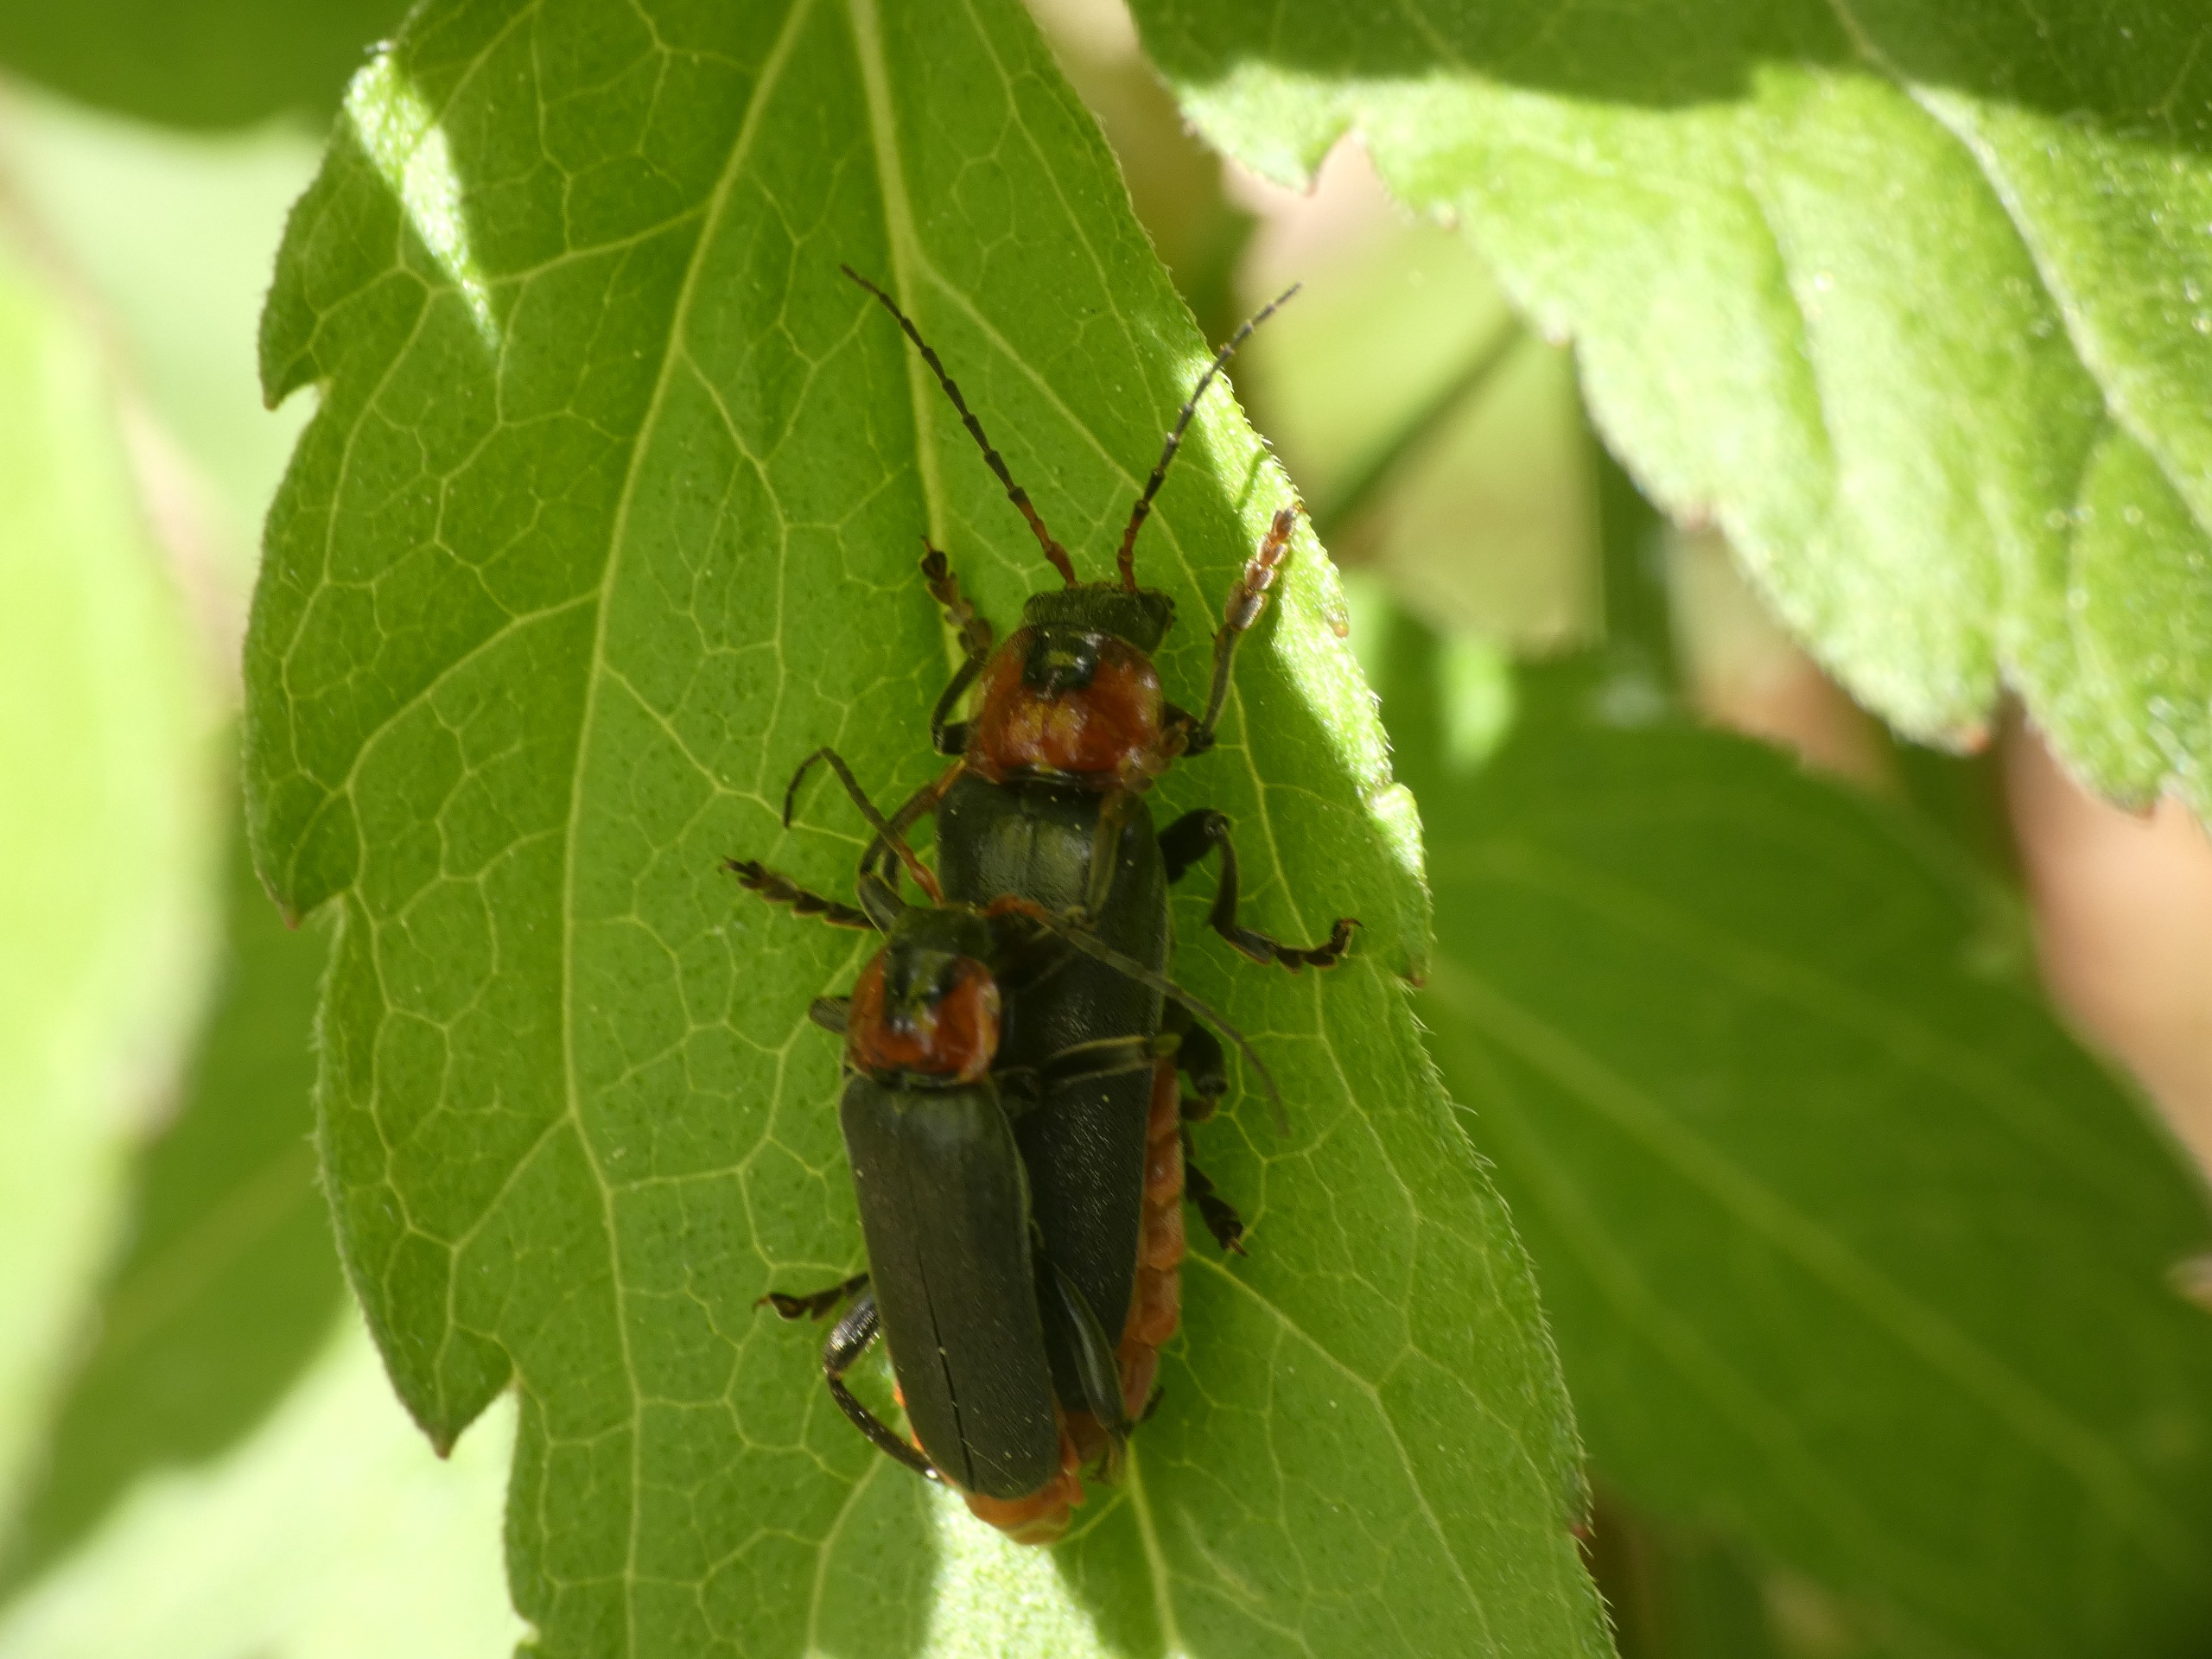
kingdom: Animalia
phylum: Arthropoda
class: Insecta
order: Coleoptera
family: Cantharidae
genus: Cantharis
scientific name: Cantharis fusca
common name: Stor blødvinge
